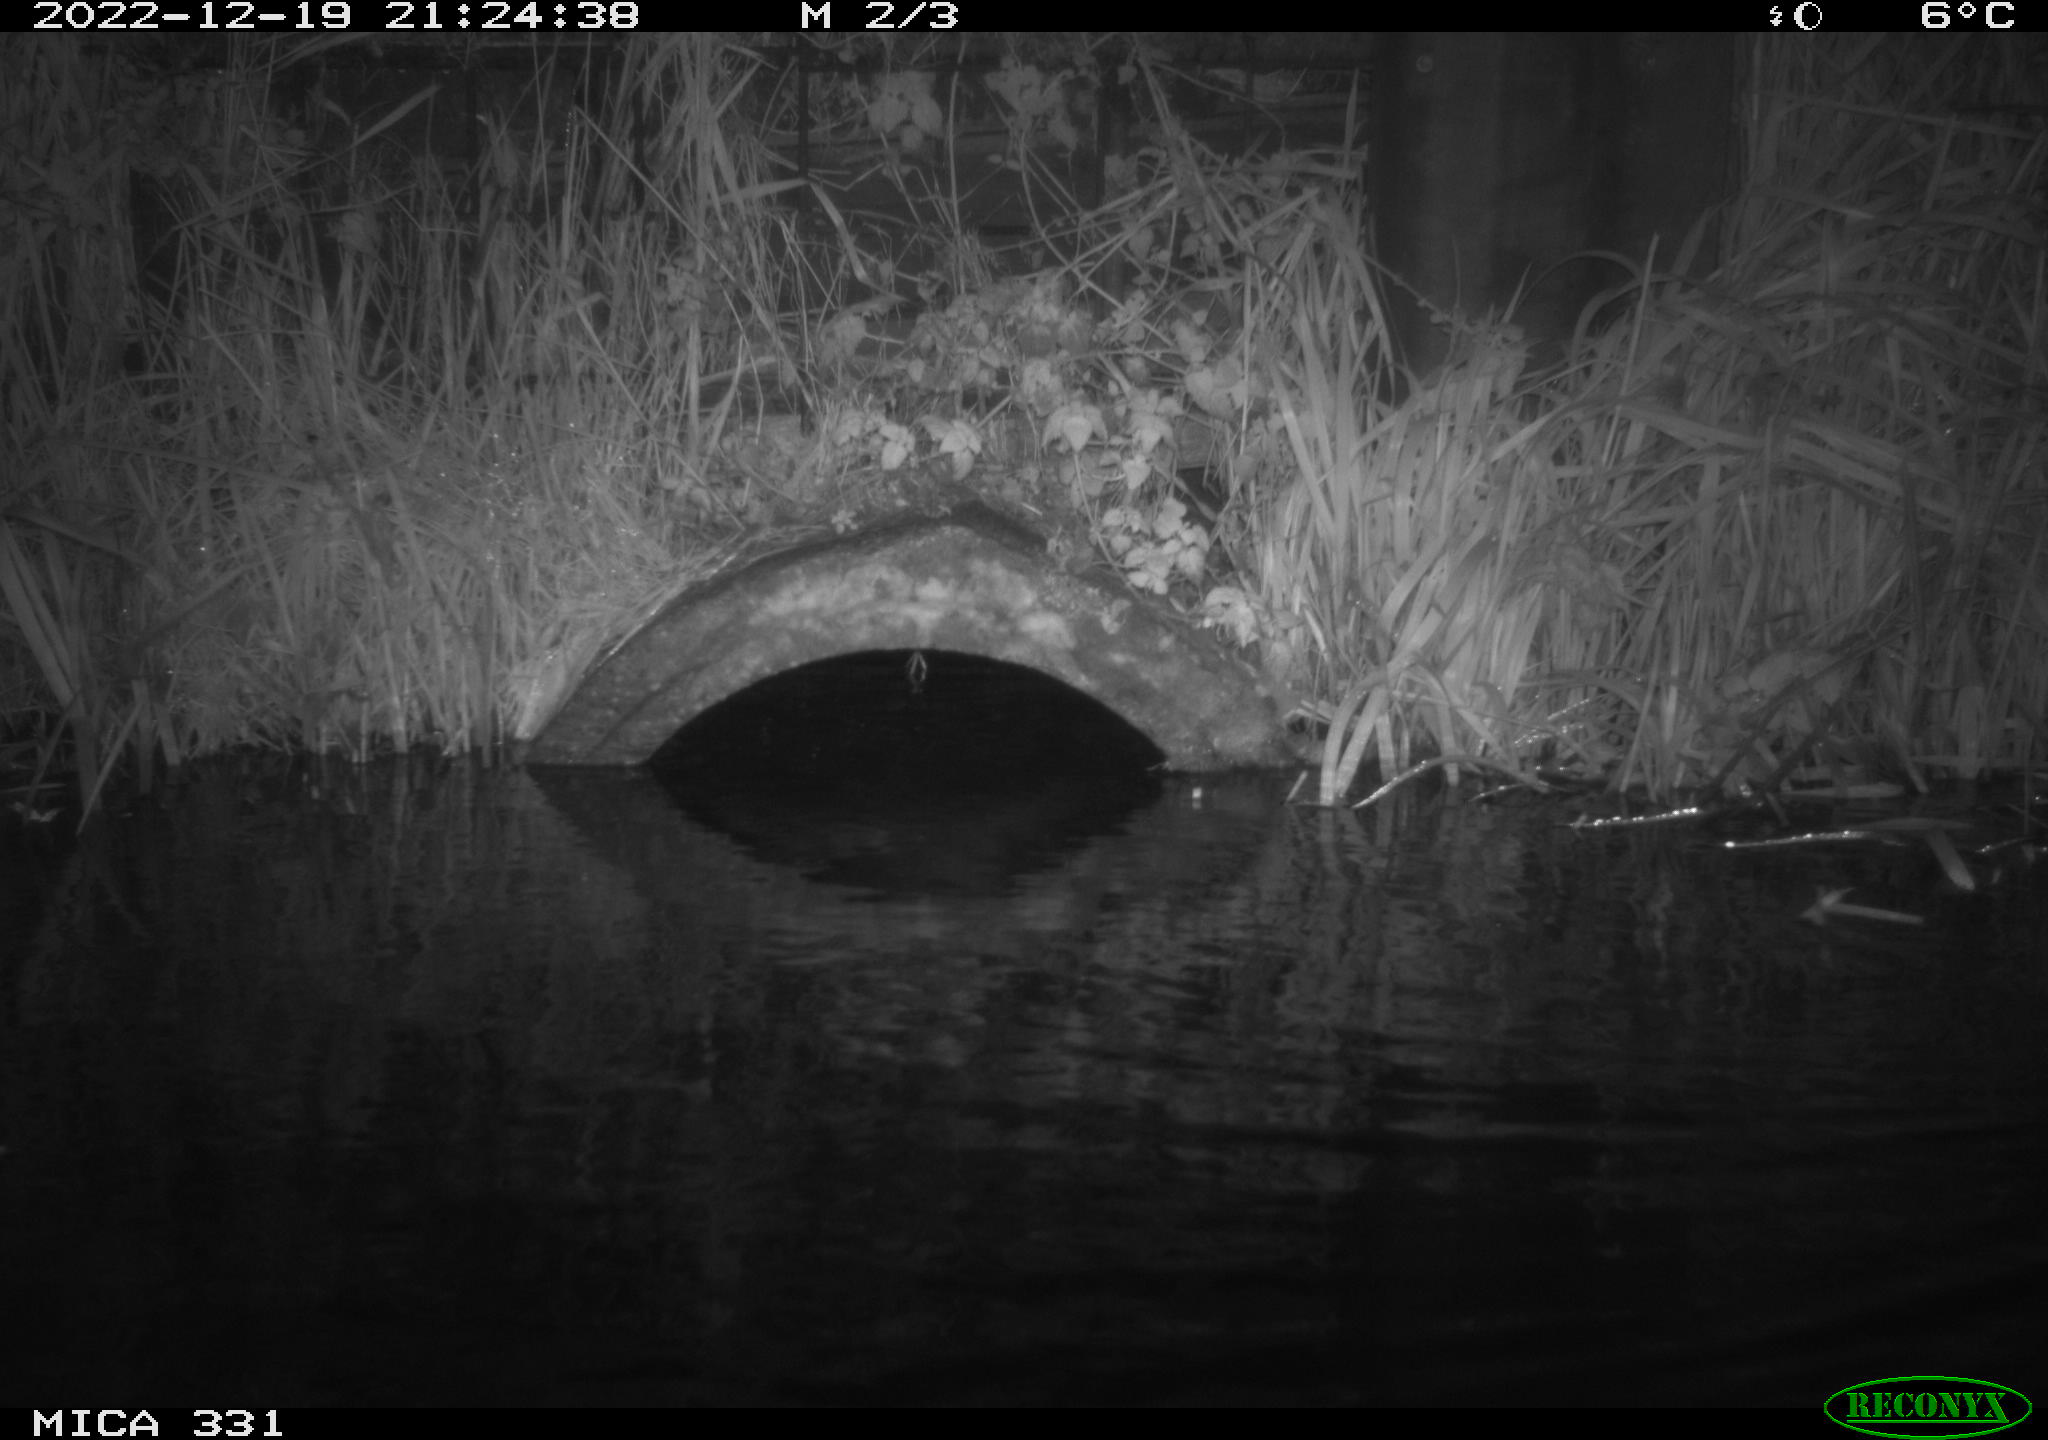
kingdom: Animalia
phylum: Chordata
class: Mammalia
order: Rodentia
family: Muridae
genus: Rattus
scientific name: Rattus norvegicus
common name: Brown rat
